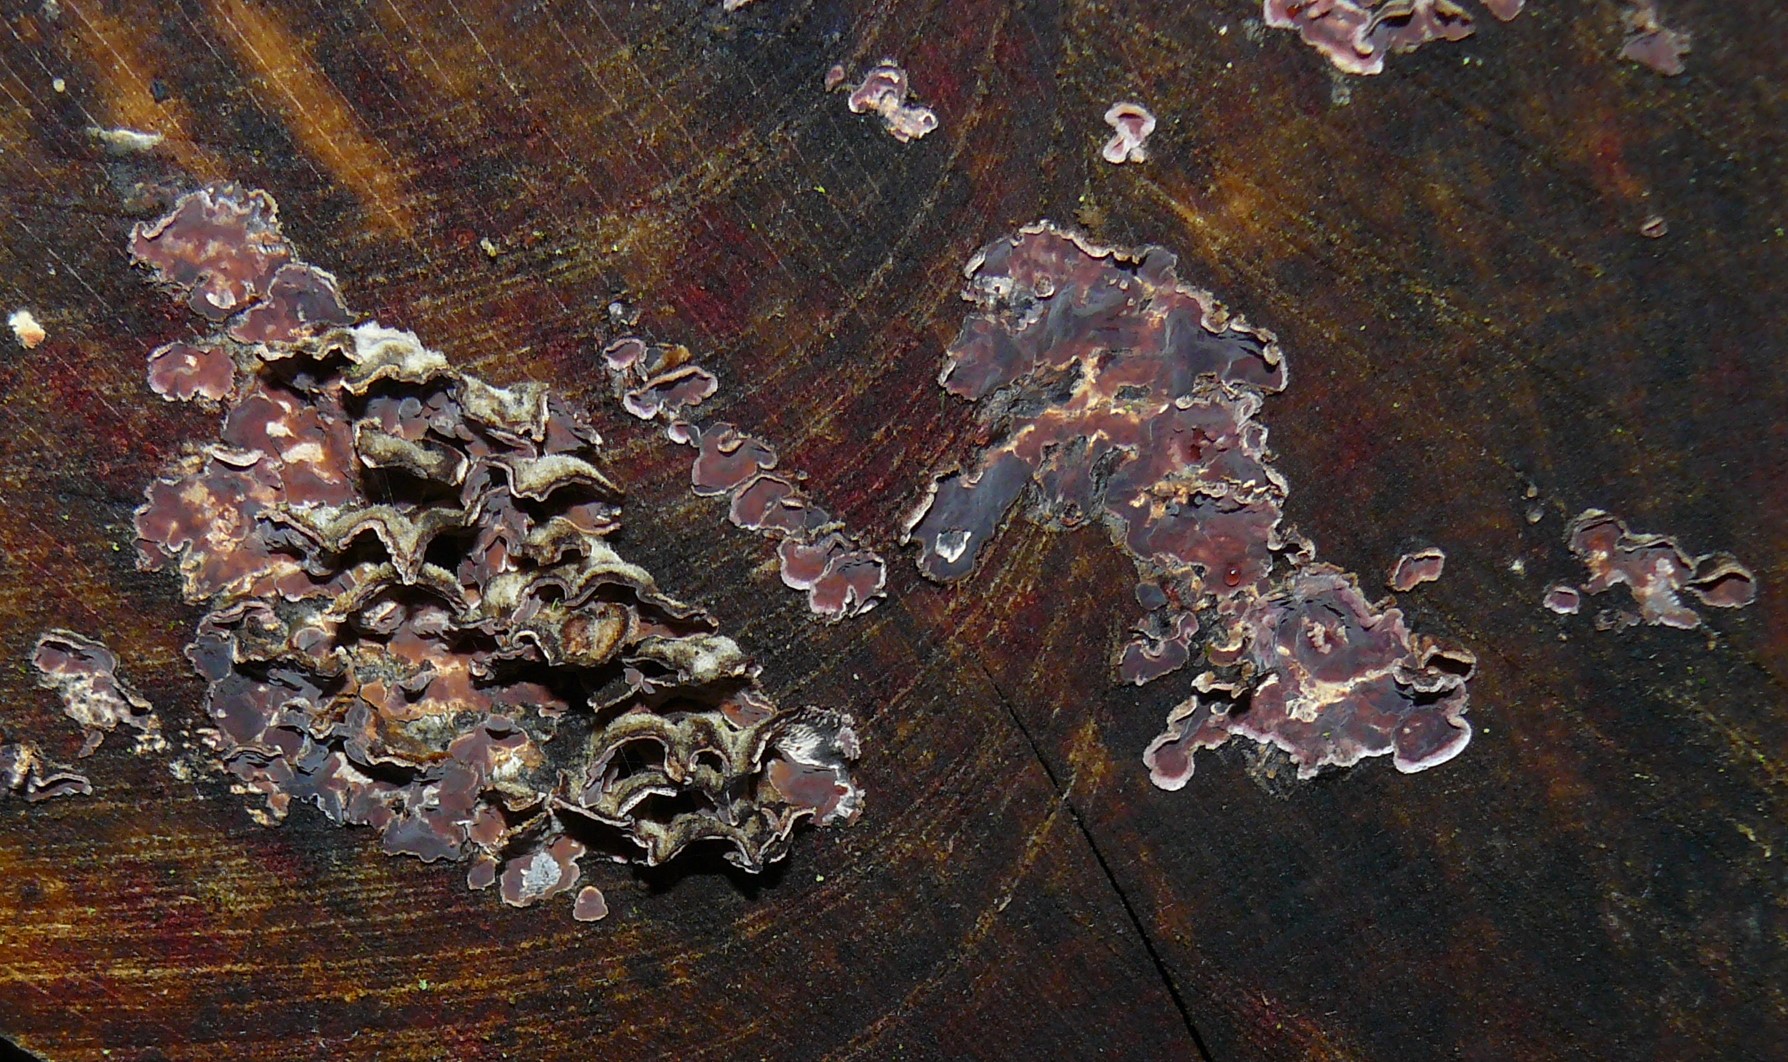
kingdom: Fungi
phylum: Basidiomycota
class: Agaricomycetes
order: Agaricales
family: Cyphellaceae
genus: Chondrostereum
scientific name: Chondrostereum purpureum
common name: purpurlædersvamp
